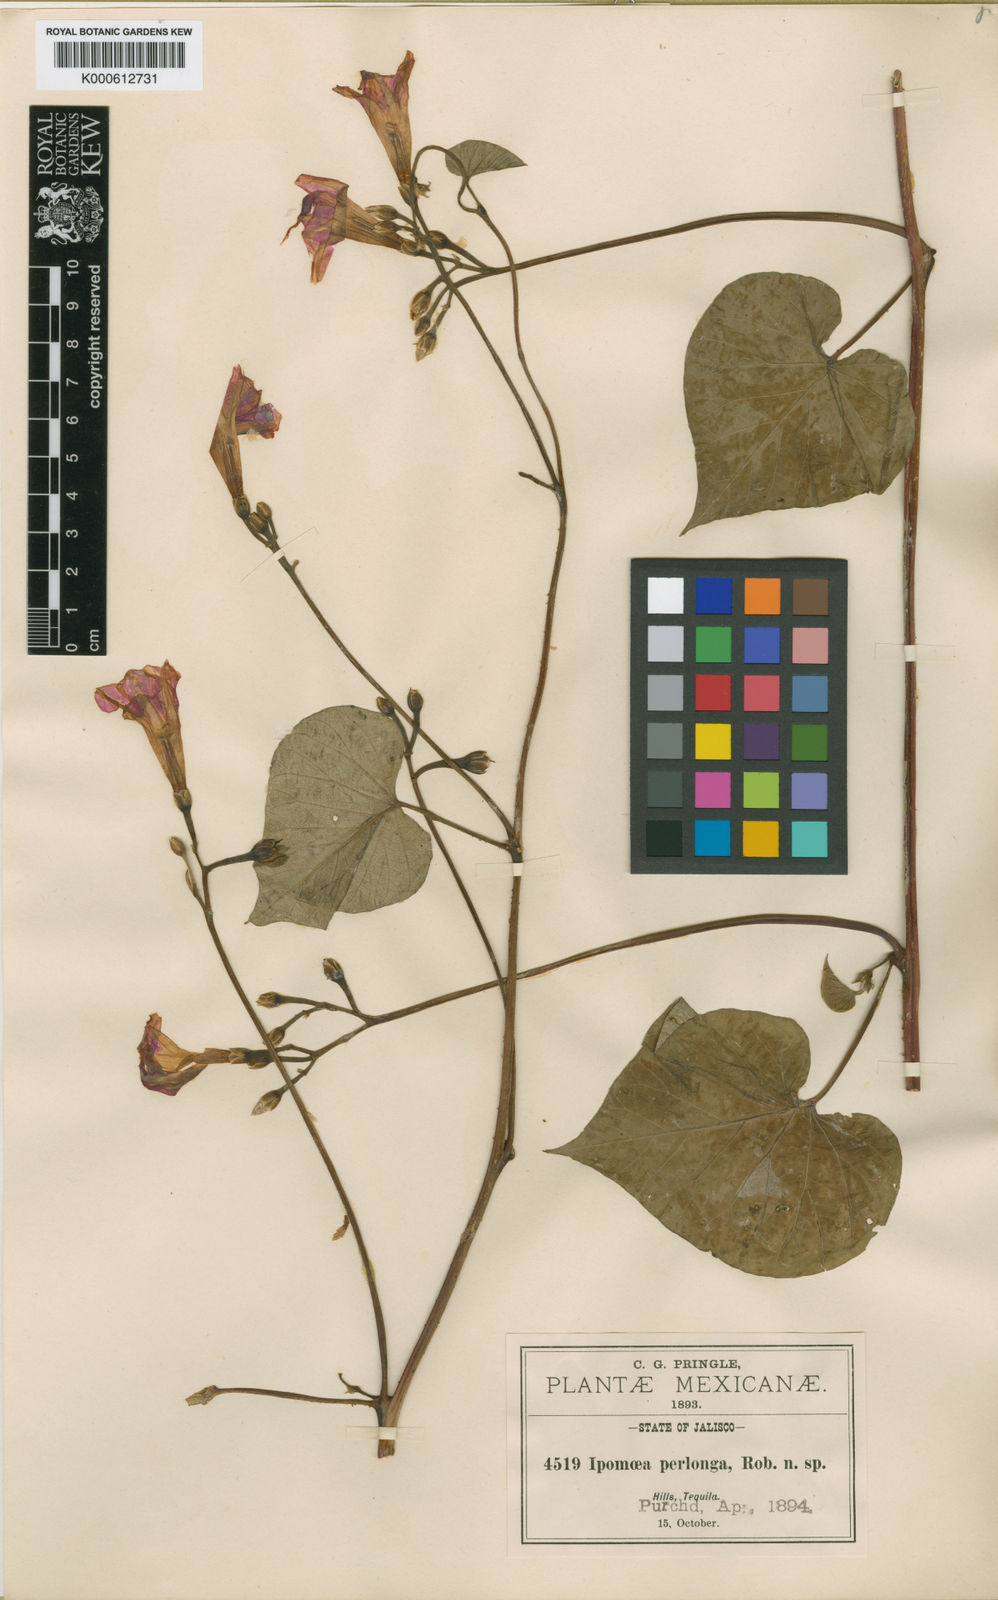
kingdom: Plantae
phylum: Tracheophyta
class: Magnoliopsida
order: Solanales
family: Convolvulaceae
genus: Ipomoea
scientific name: Ipomoea parasitica
